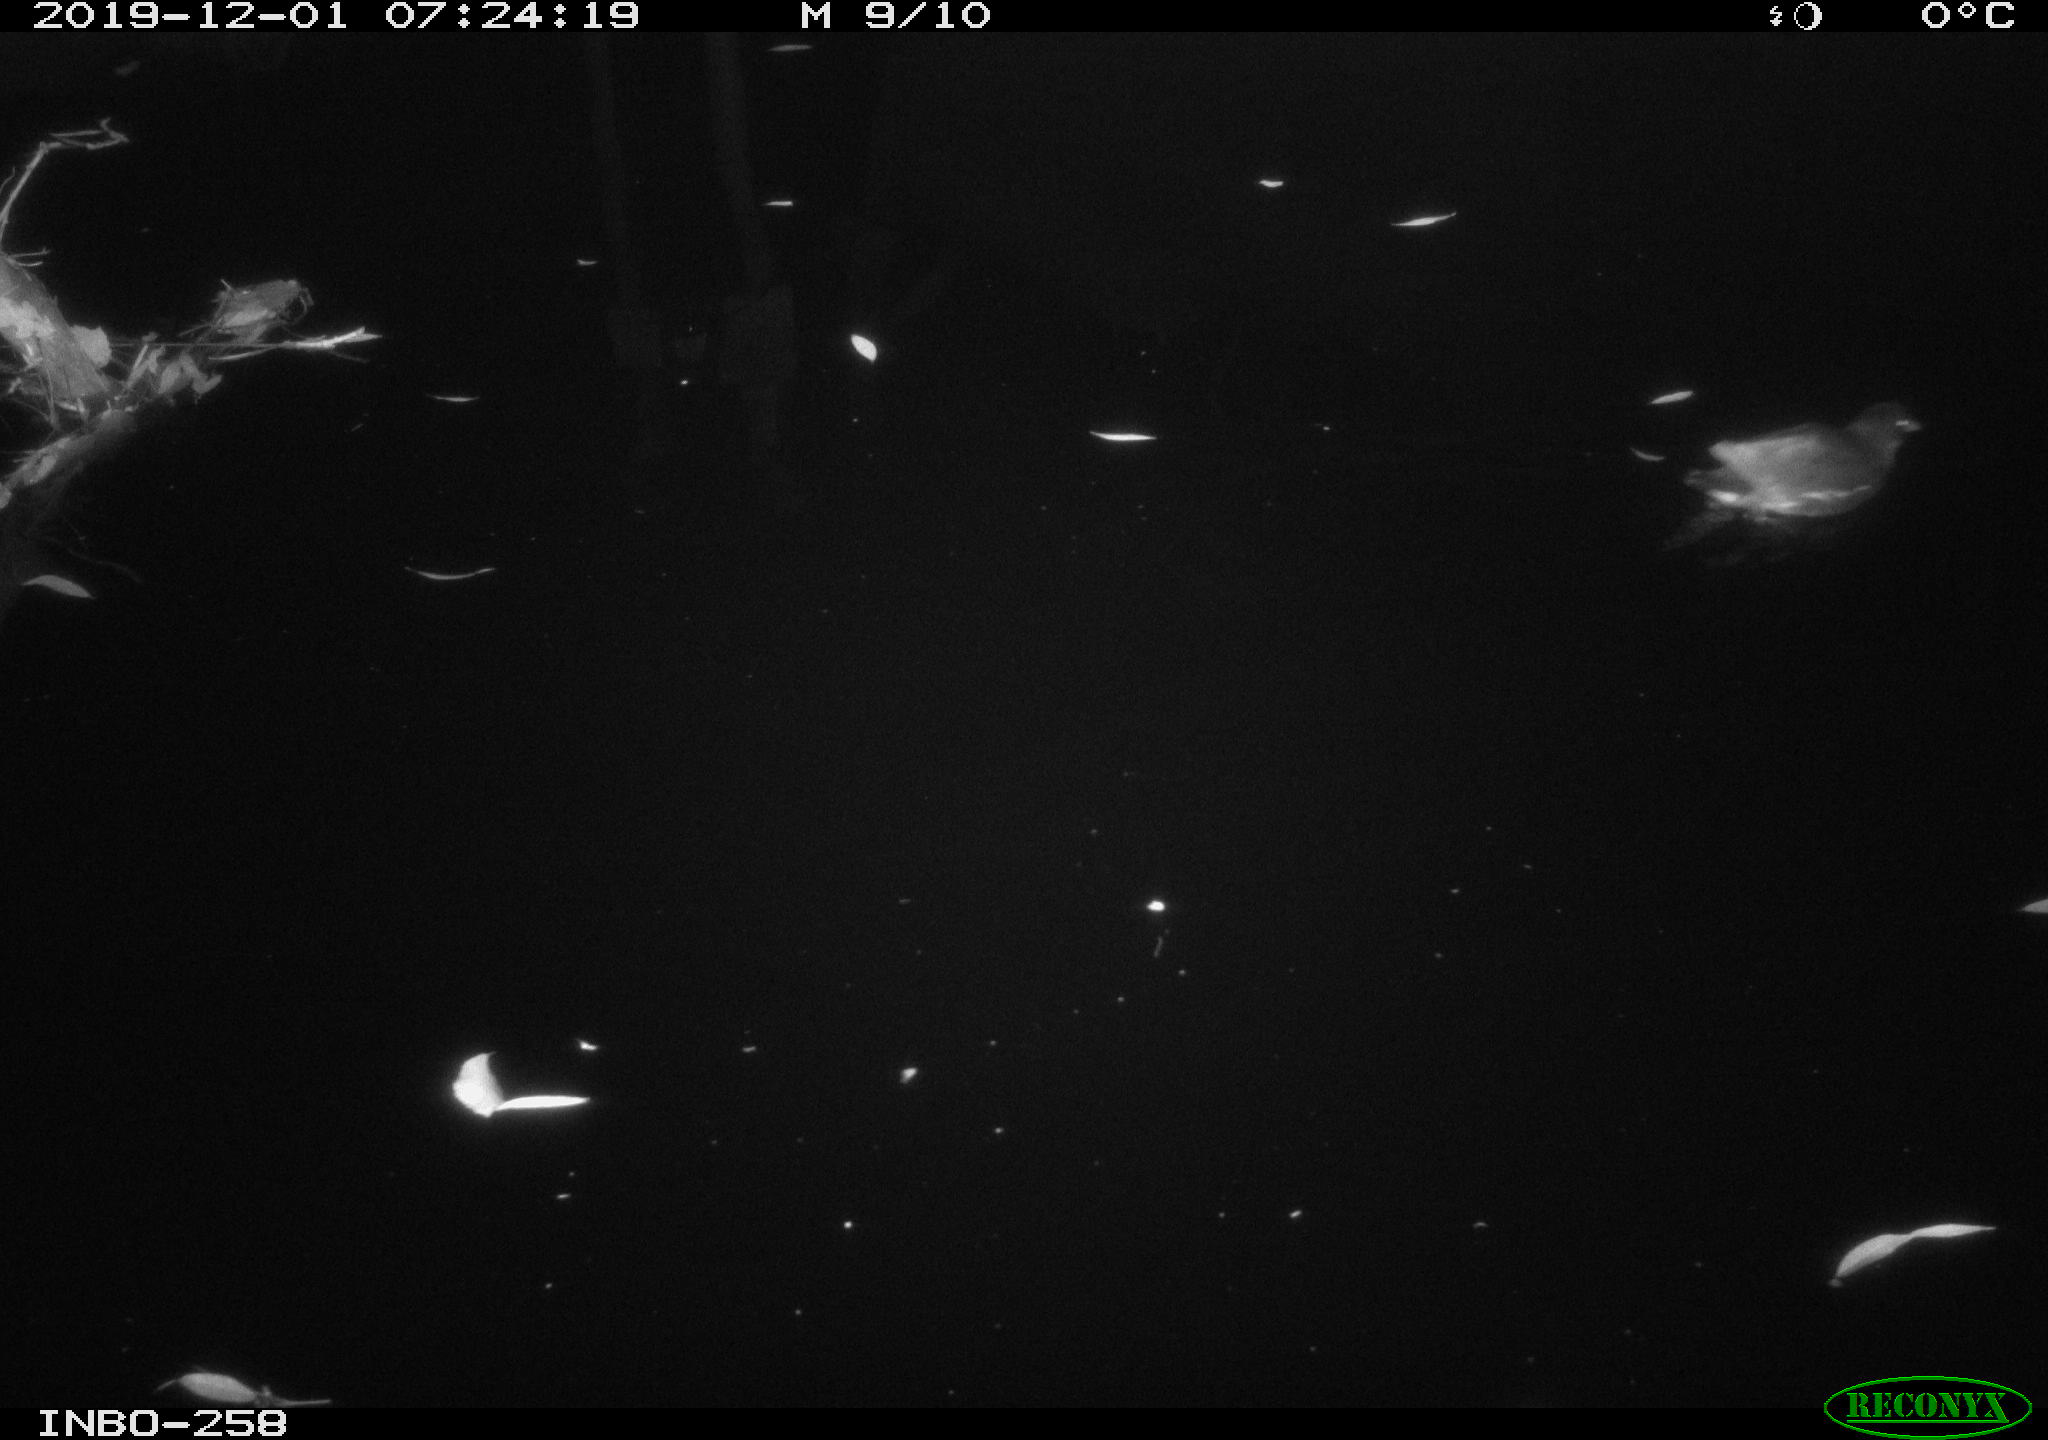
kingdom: Animalia
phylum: Chordata
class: Aves
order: Gruiformes
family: Rallidae
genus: Gallinula
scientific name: Gallinula chloropus
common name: Common moorhen
